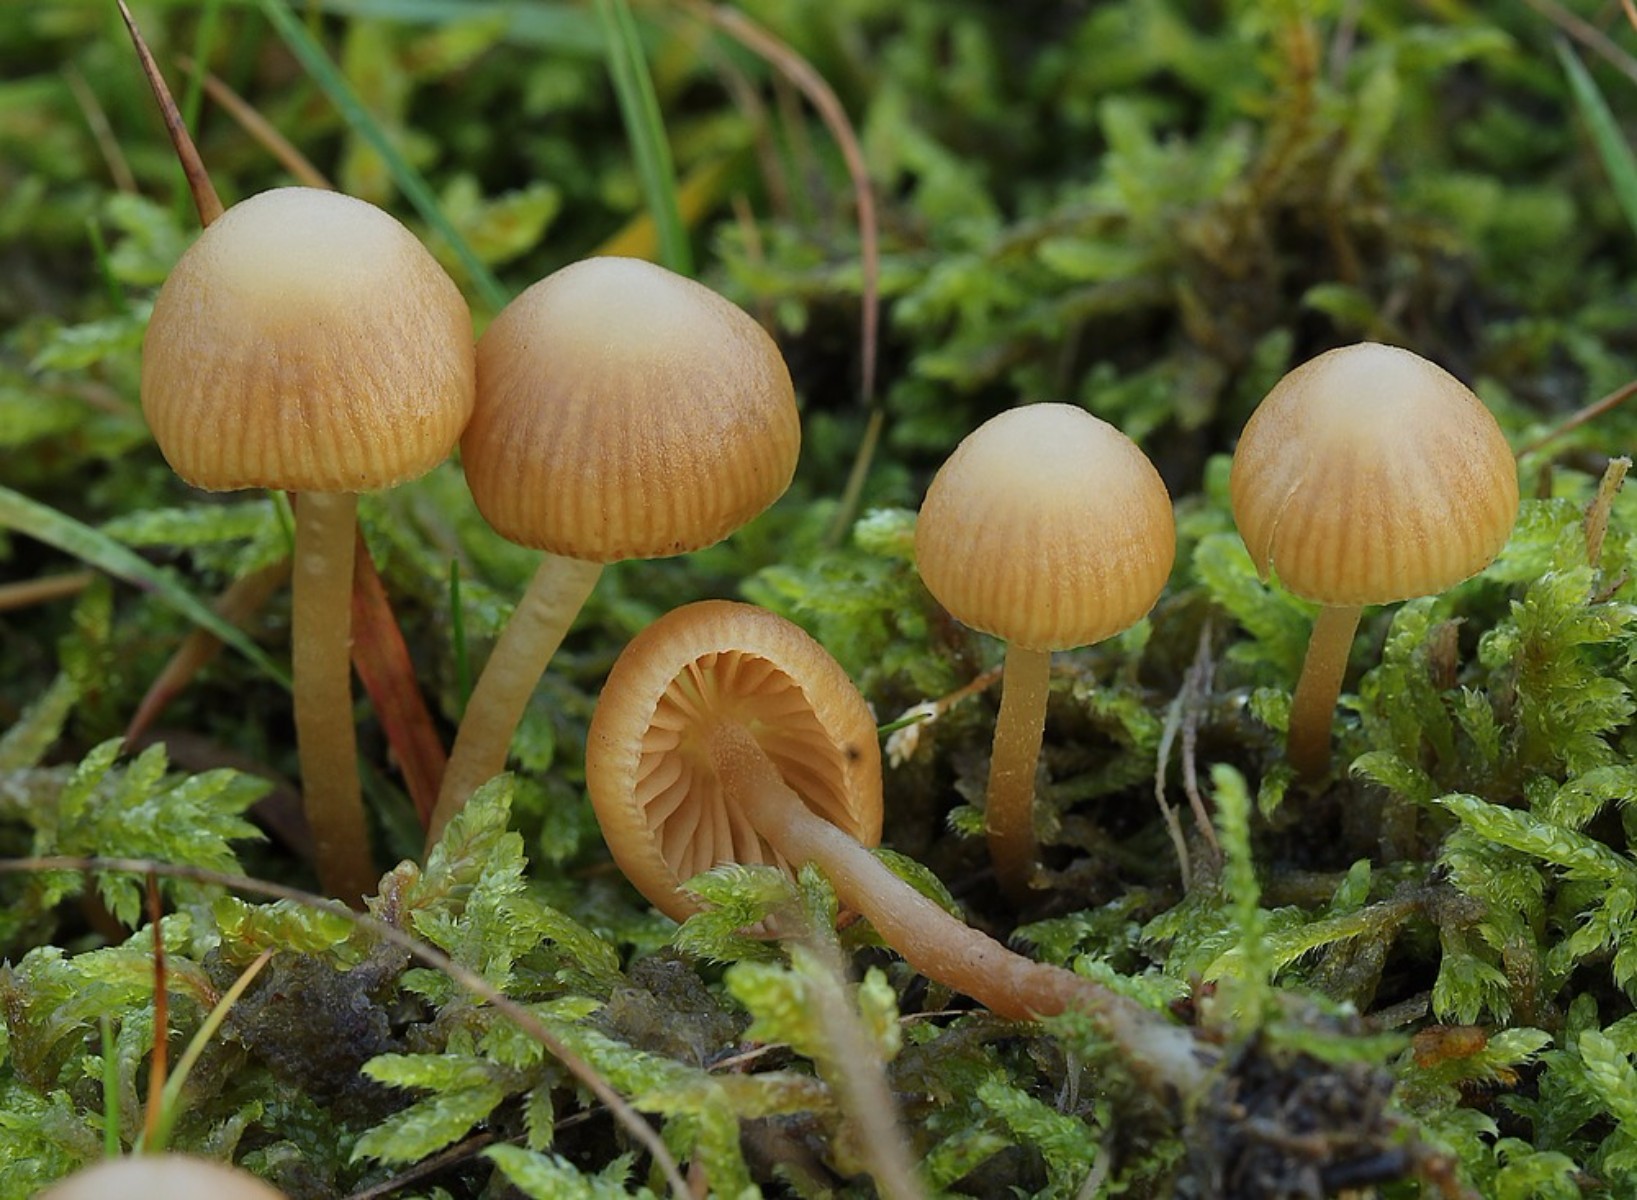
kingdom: Fungi
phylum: Basidiomycota
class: Agaricomycetes
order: Agaricales
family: Hymenogastraceae
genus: Galerina
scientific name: Galerina mniophila
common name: olivengul hjelmhat
